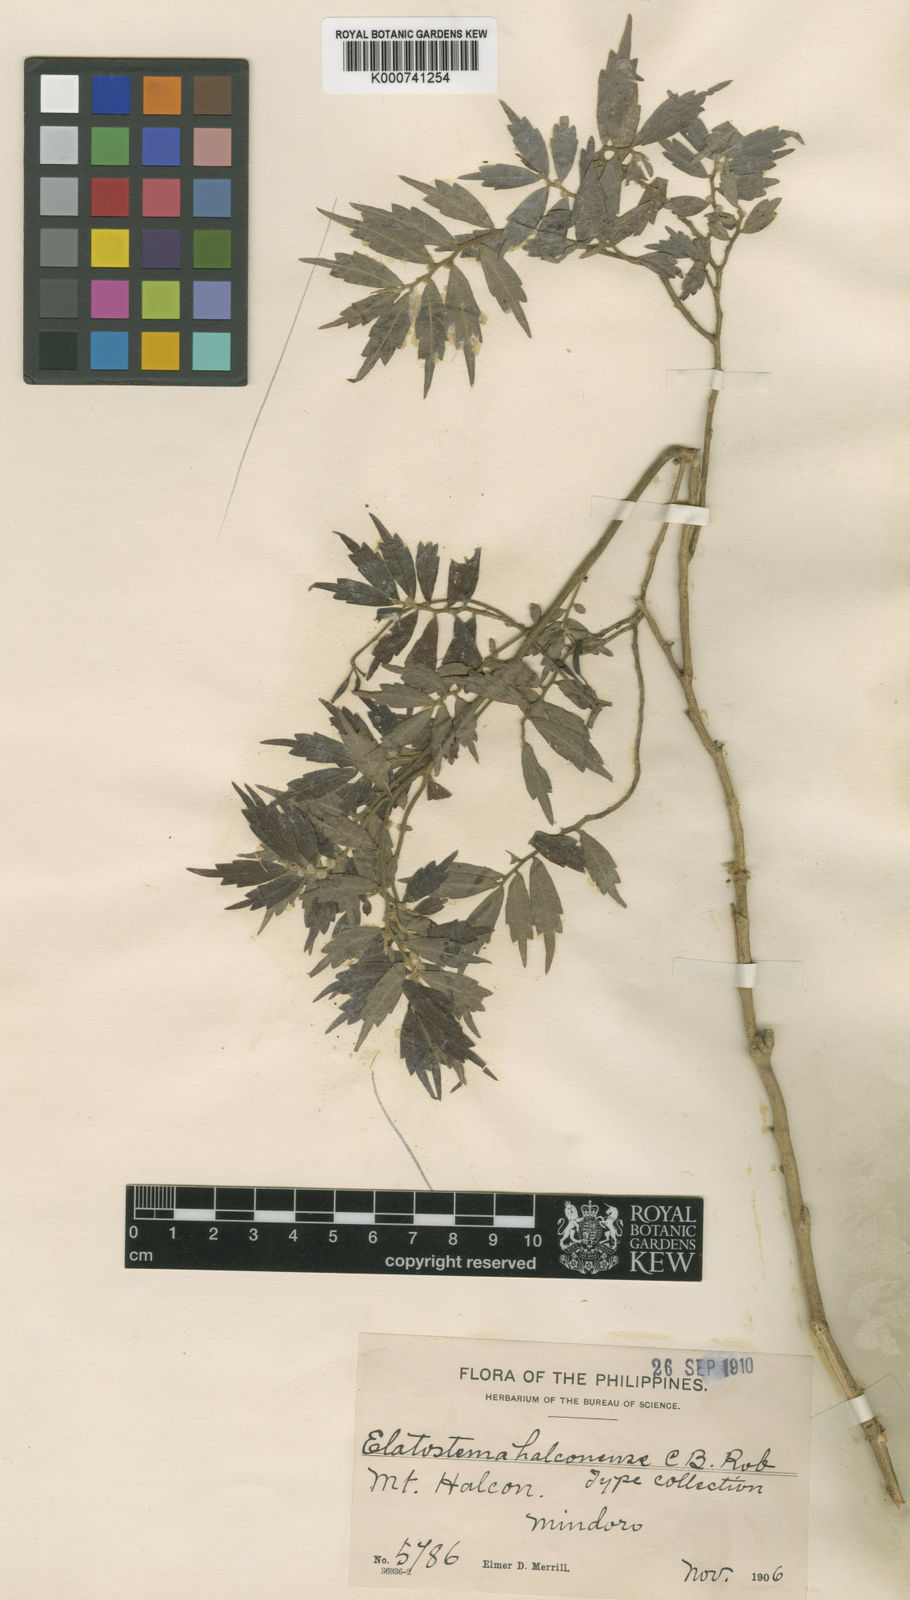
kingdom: Plantae
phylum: Tracheophyta
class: Magnoliopsida
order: Rosales
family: Urticaceae
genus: Elatostema
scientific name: Elatostema halconense
